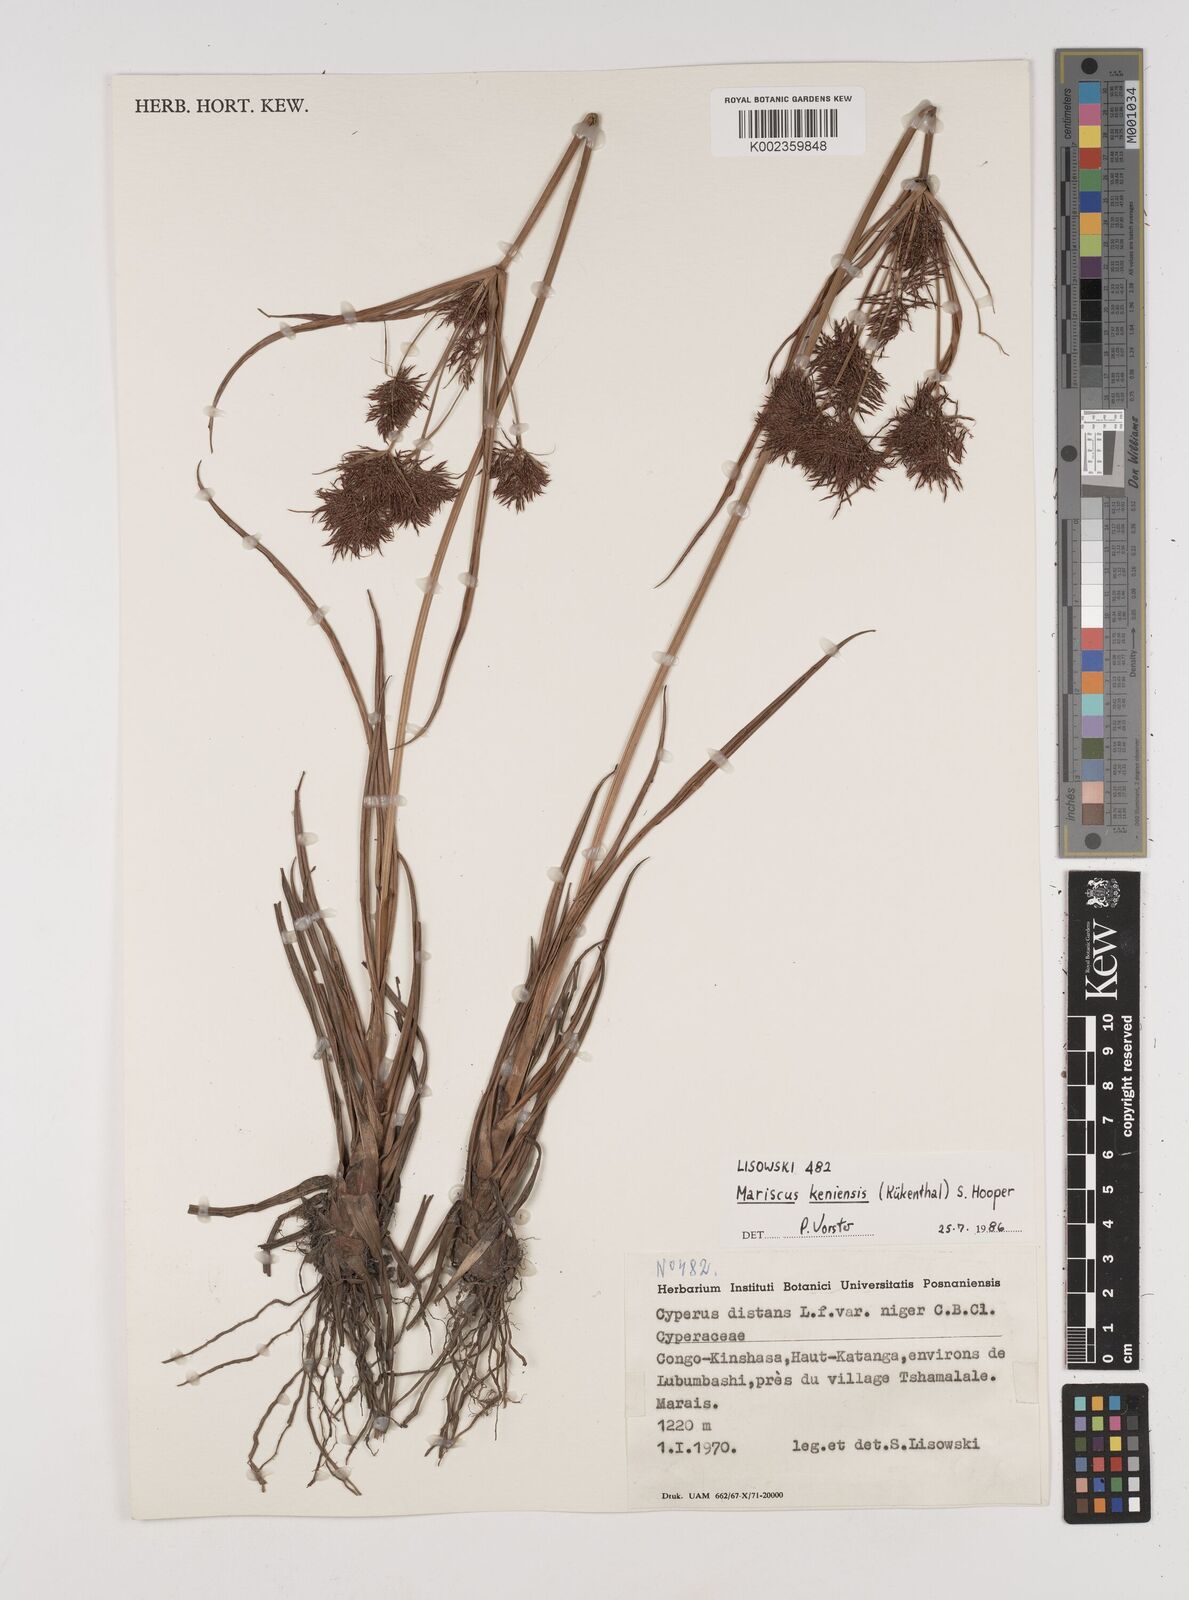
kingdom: Plantae
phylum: Tracheophyta
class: Liliopsida
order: Poales
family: Cyperaceae
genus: Cyperus
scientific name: Cyperus distans
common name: Slender cyperus
